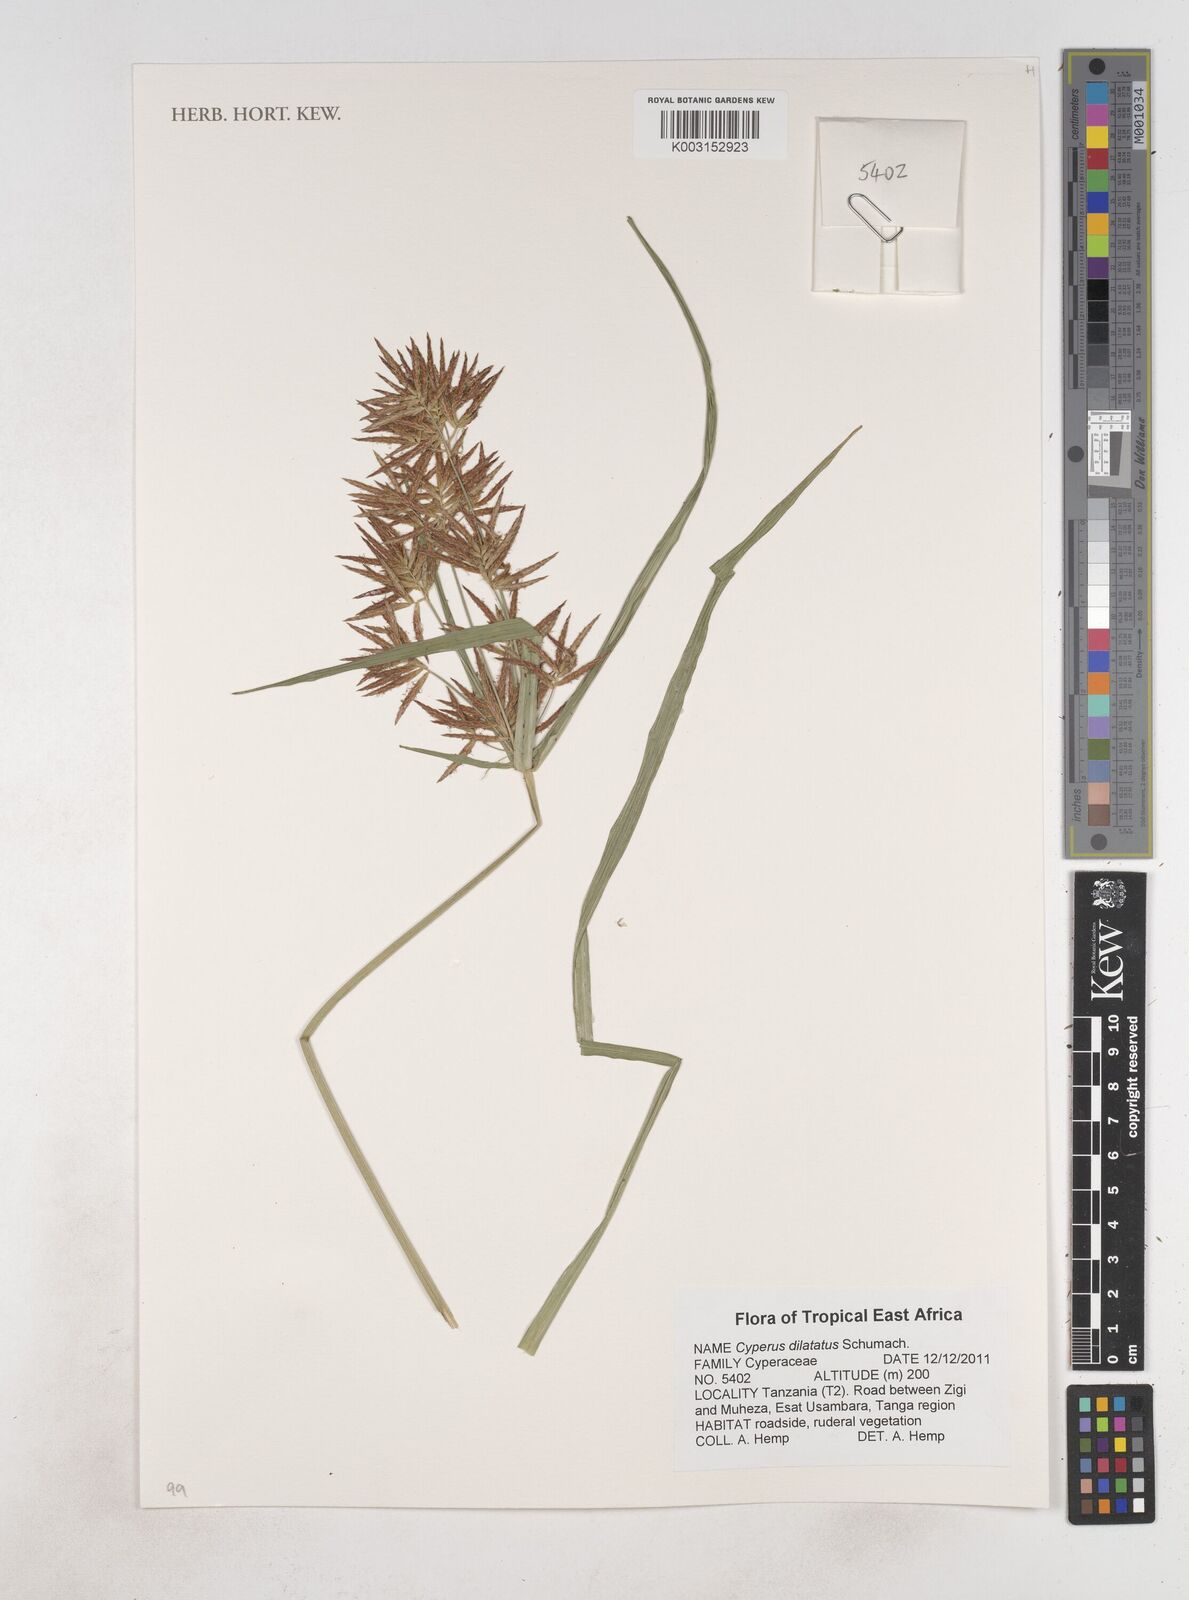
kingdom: Plantae
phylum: Tracheophyta
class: Liliopsida
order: Poales
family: Cyperaceae
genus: Cyperus
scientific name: Cyperus dilatatus
